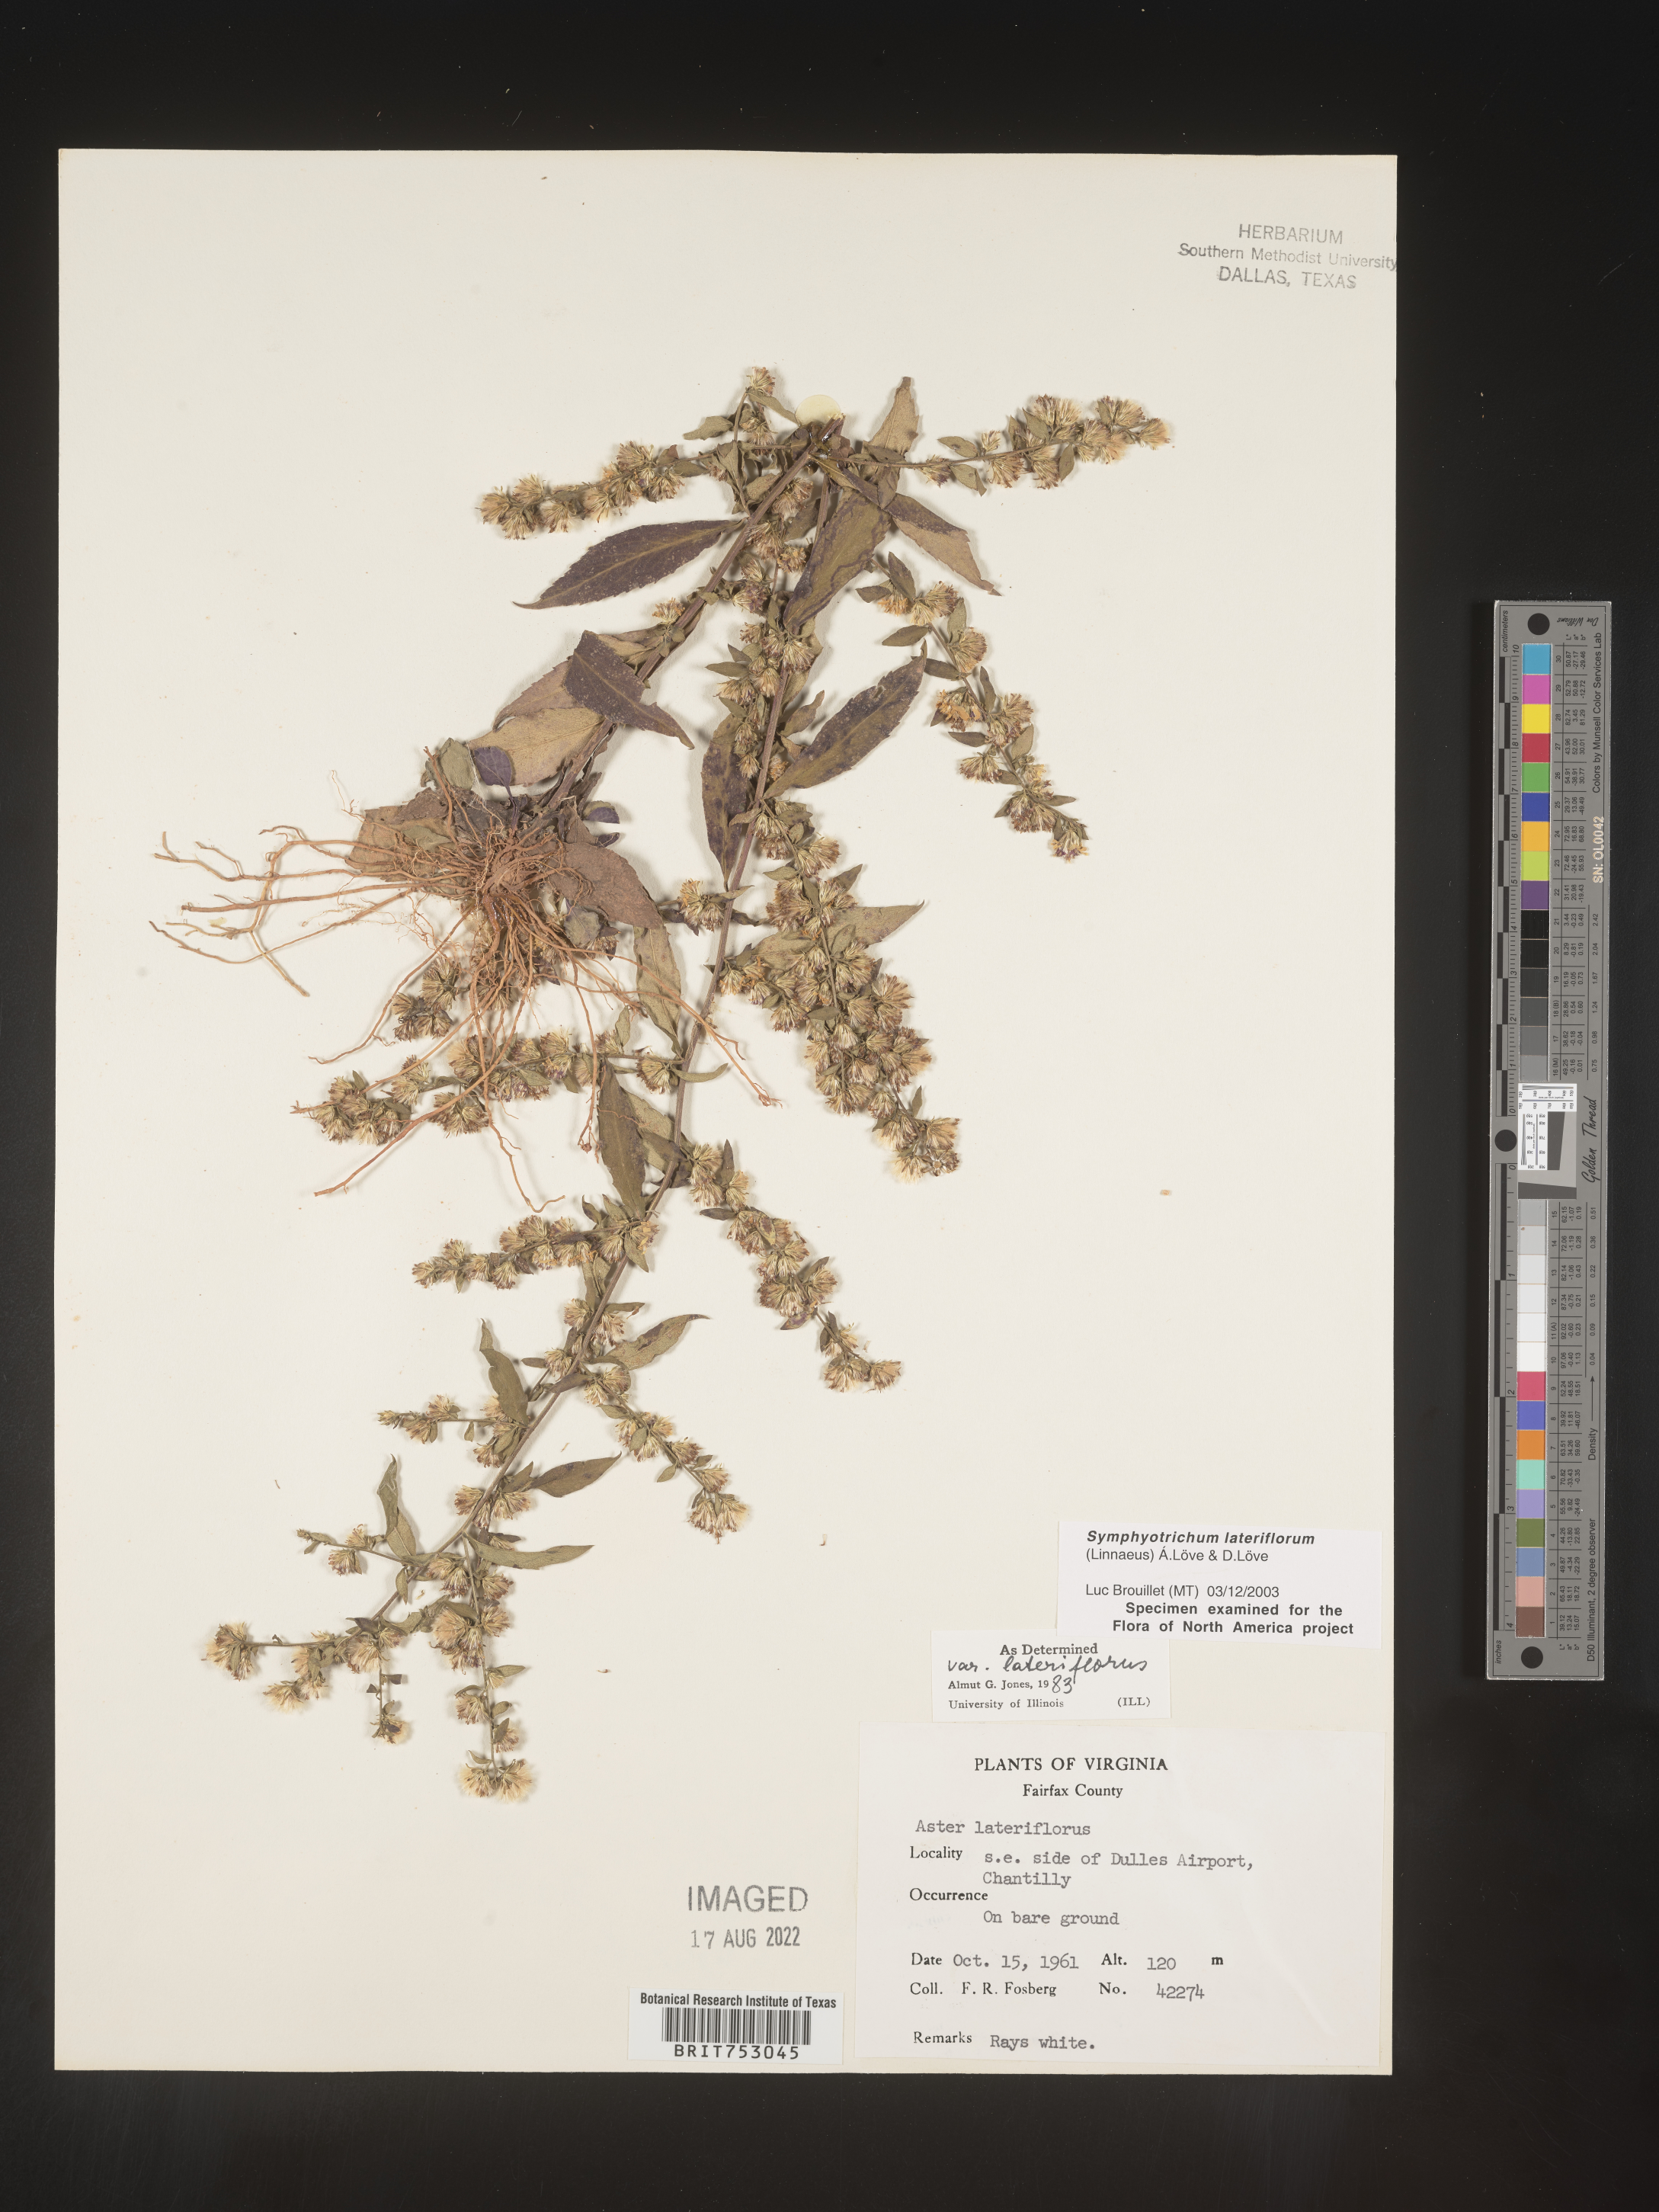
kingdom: Plantae
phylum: Tracheophyta
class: Magnoliopsida
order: Asterales
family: Asteraceae
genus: Symphyotrichum
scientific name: Symphyotrichum lateriflorum
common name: Calico aster
